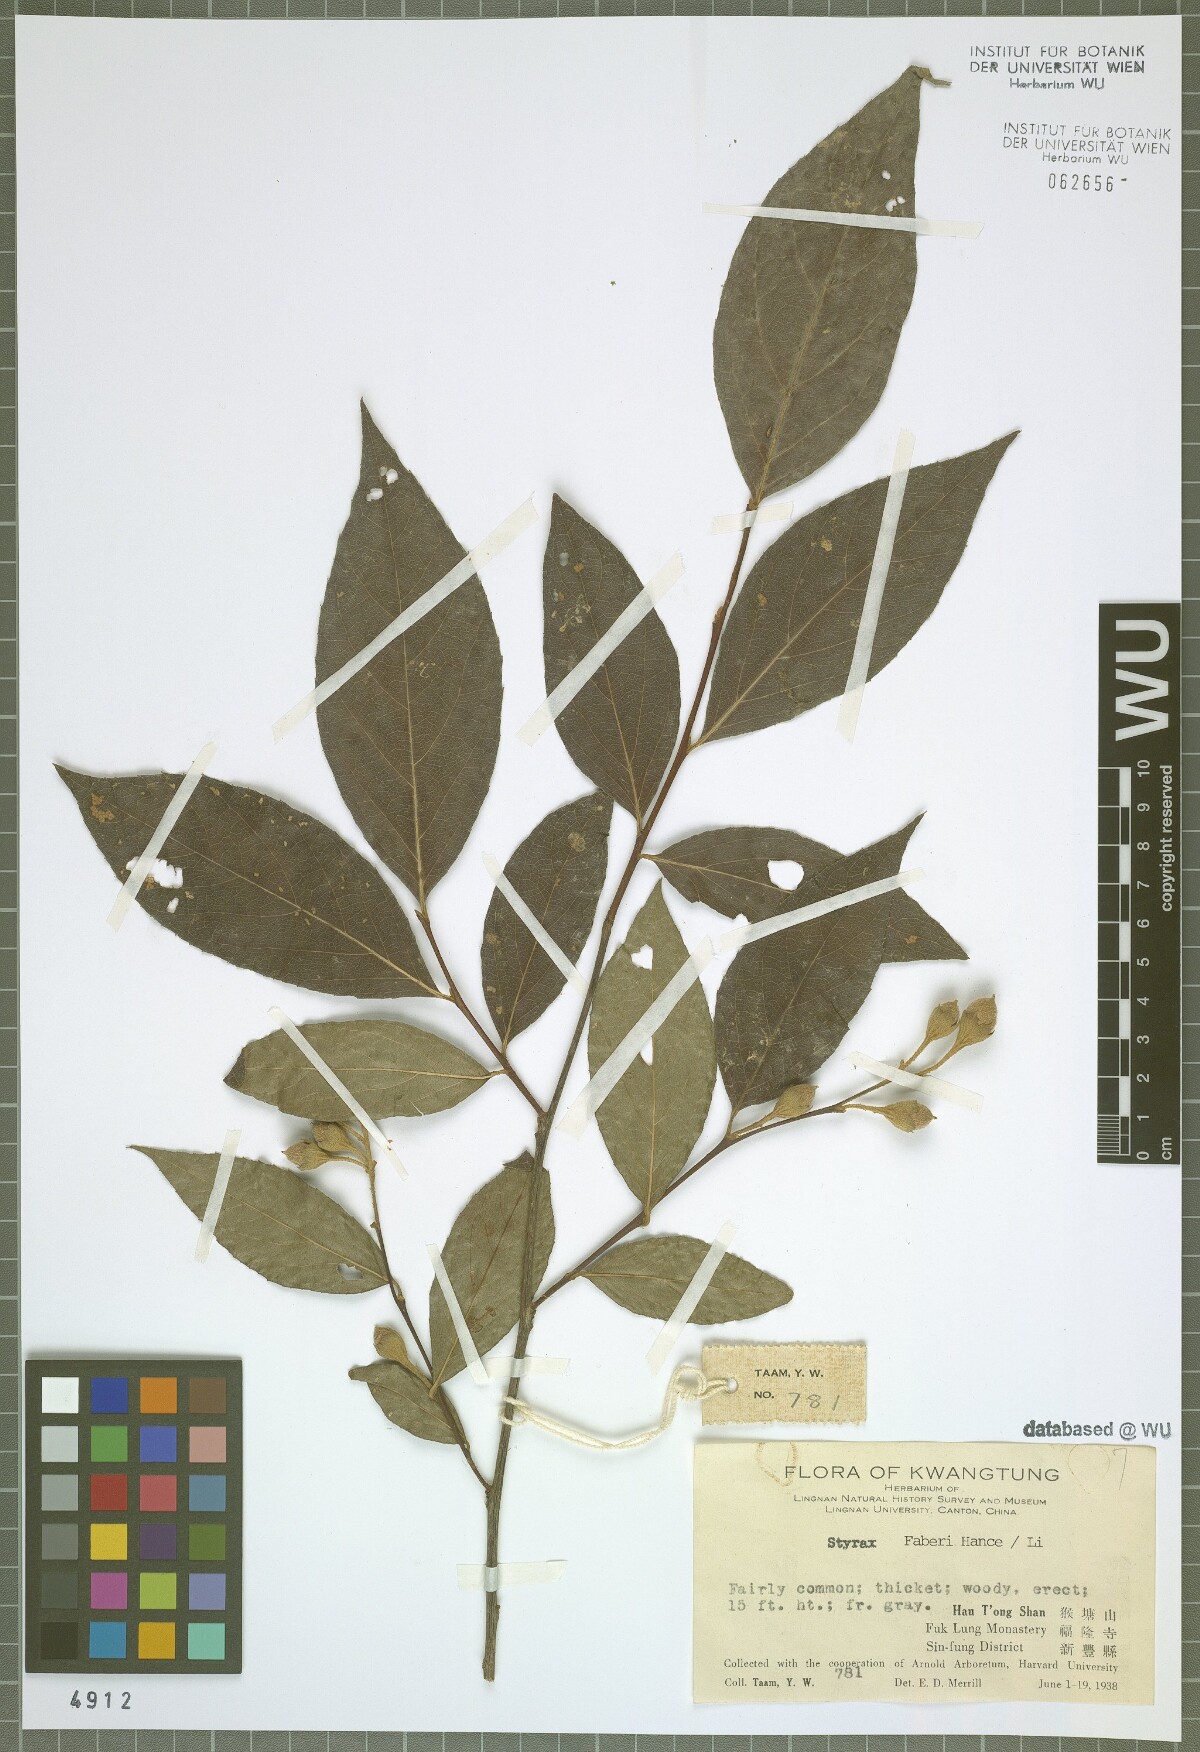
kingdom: Plantae
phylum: Tracheophyta
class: Magnoliopsida
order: Ericales
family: Styracaceae
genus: Styrax
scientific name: Styrax faberi
